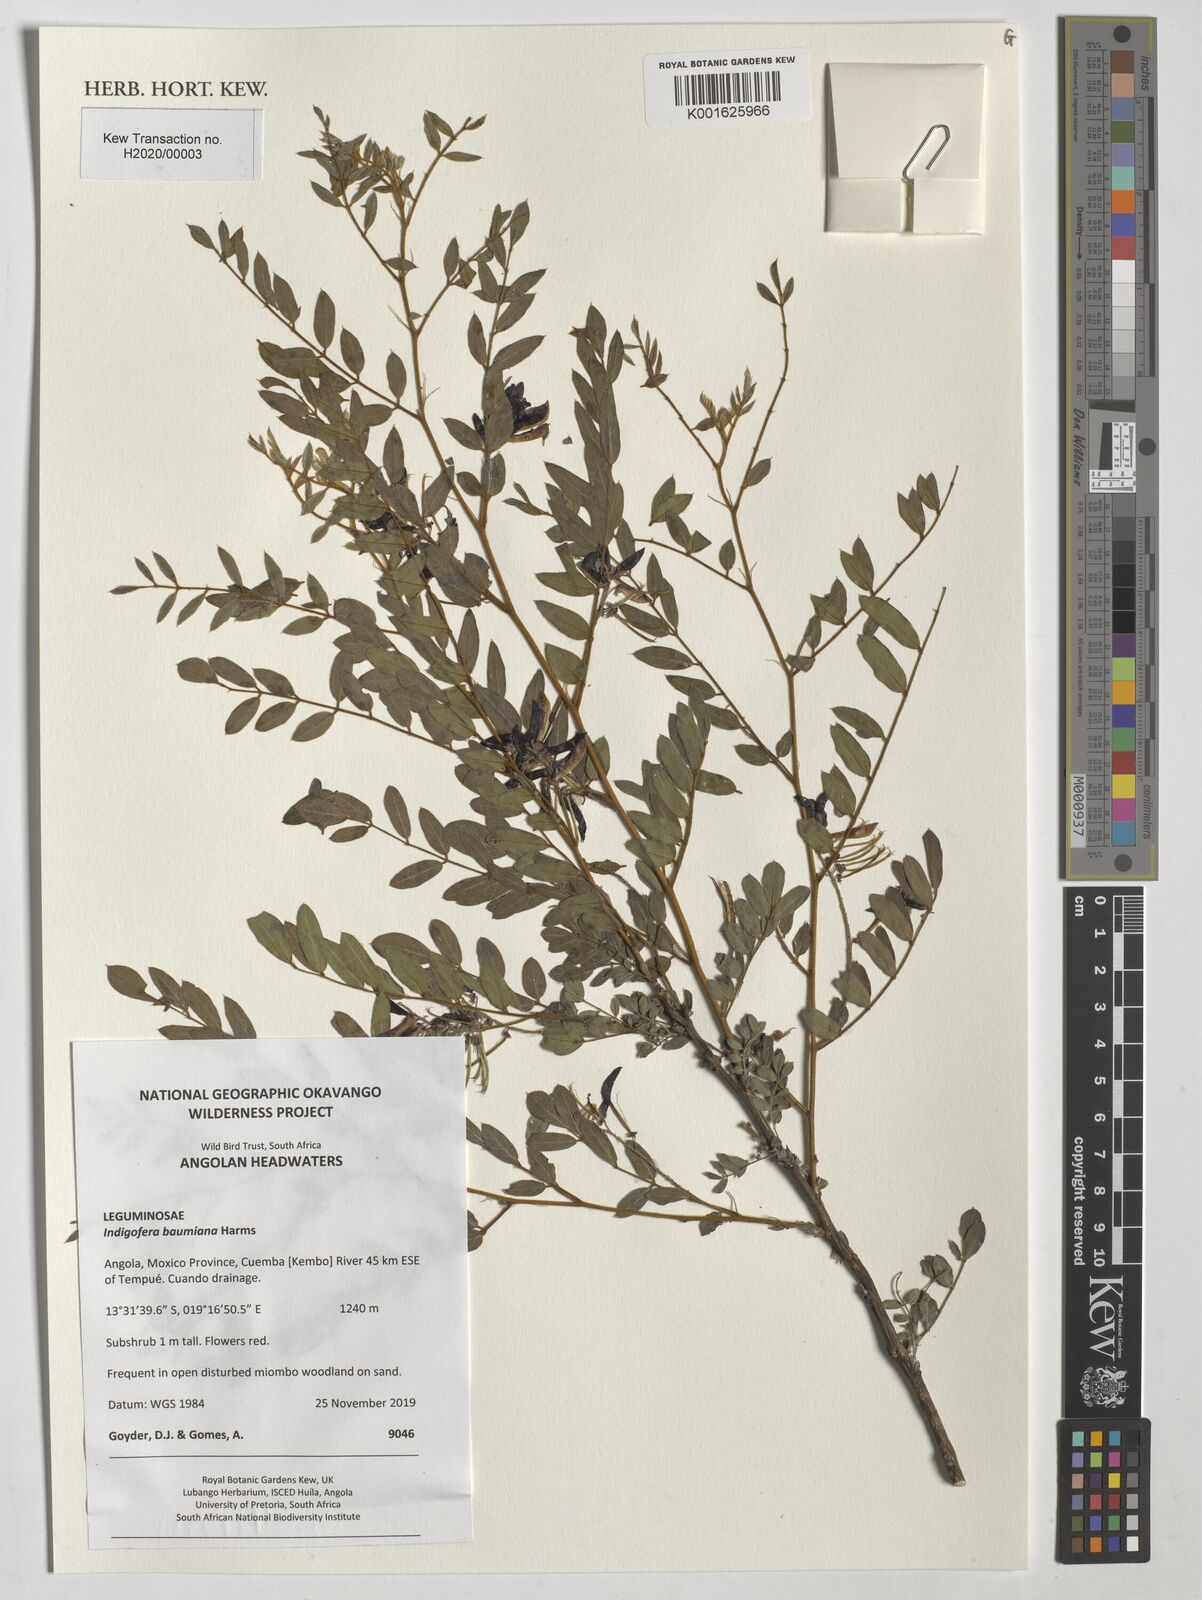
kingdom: Plantae
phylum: Tracheophyta
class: Magnoliopsida
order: Fabales
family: Fabaceae
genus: Indigofera
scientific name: Indigofera baumiana
